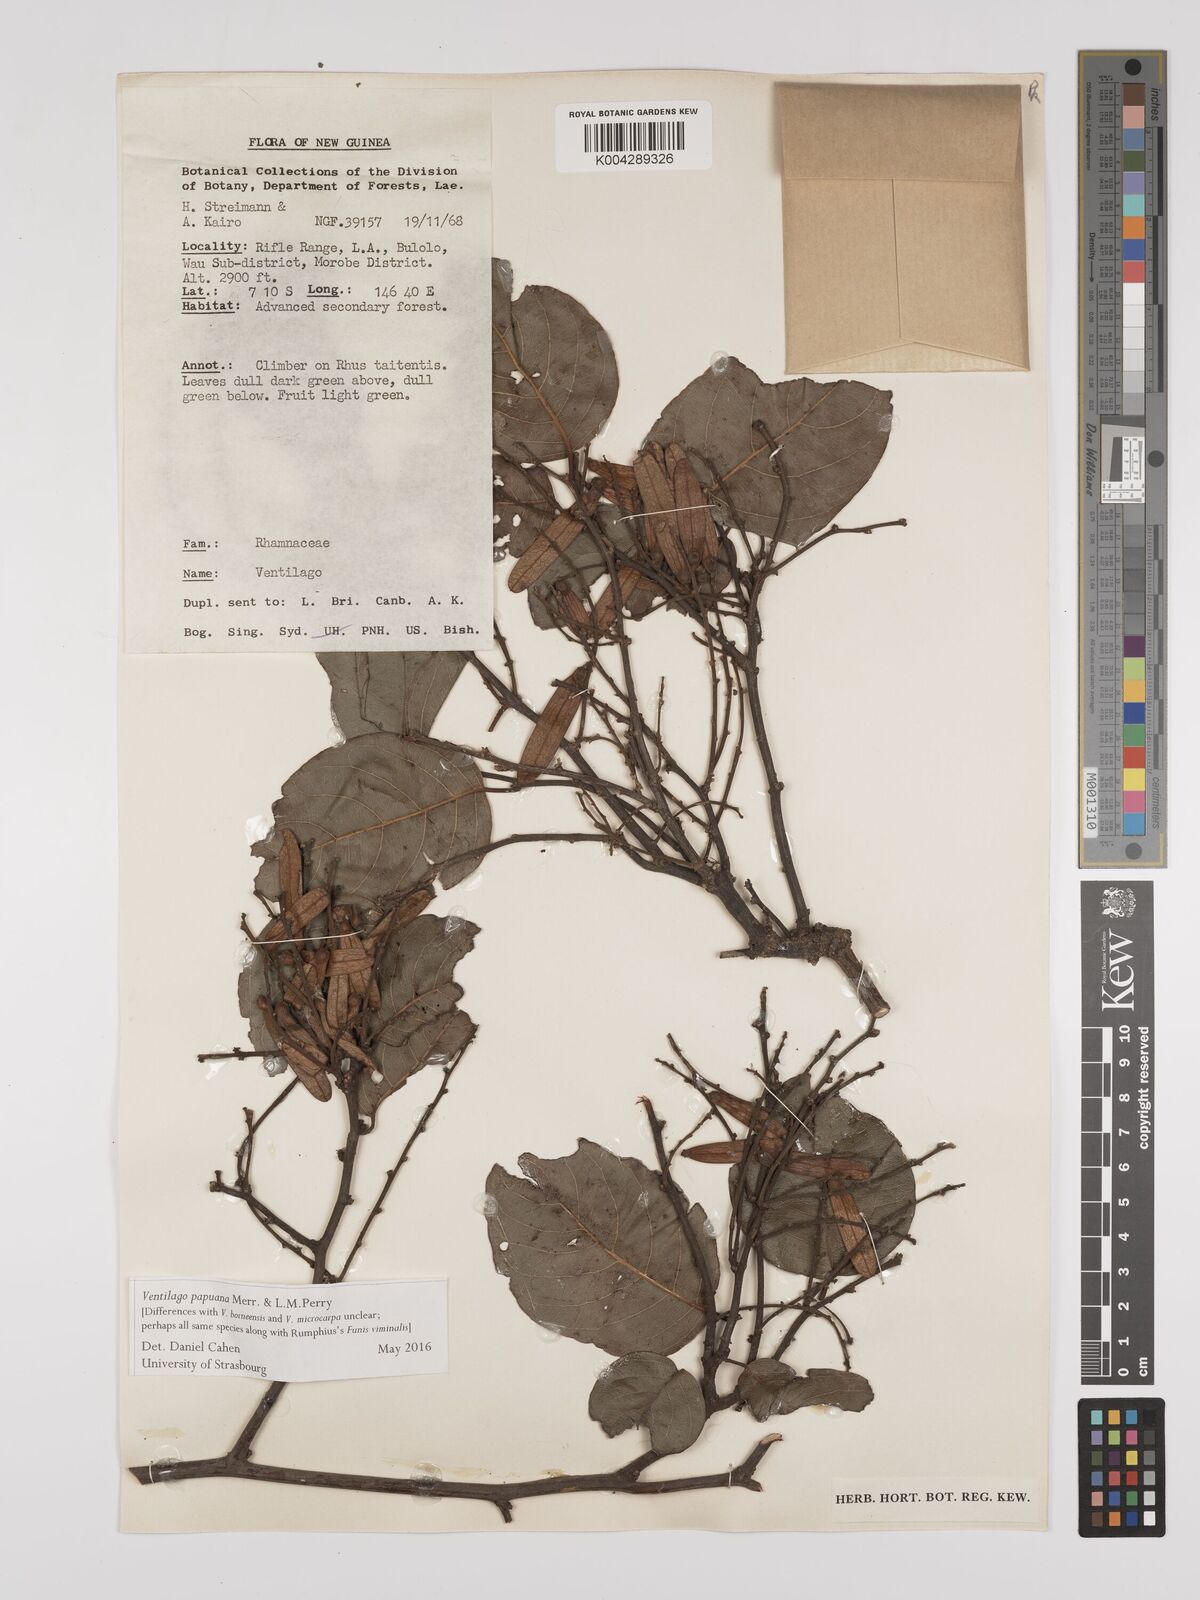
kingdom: Plantae
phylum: Tracheophyta
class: Magnoliopsida
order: Rosales
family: Rhamnaceae
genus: Ventilago
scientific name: Ventilago papuana
